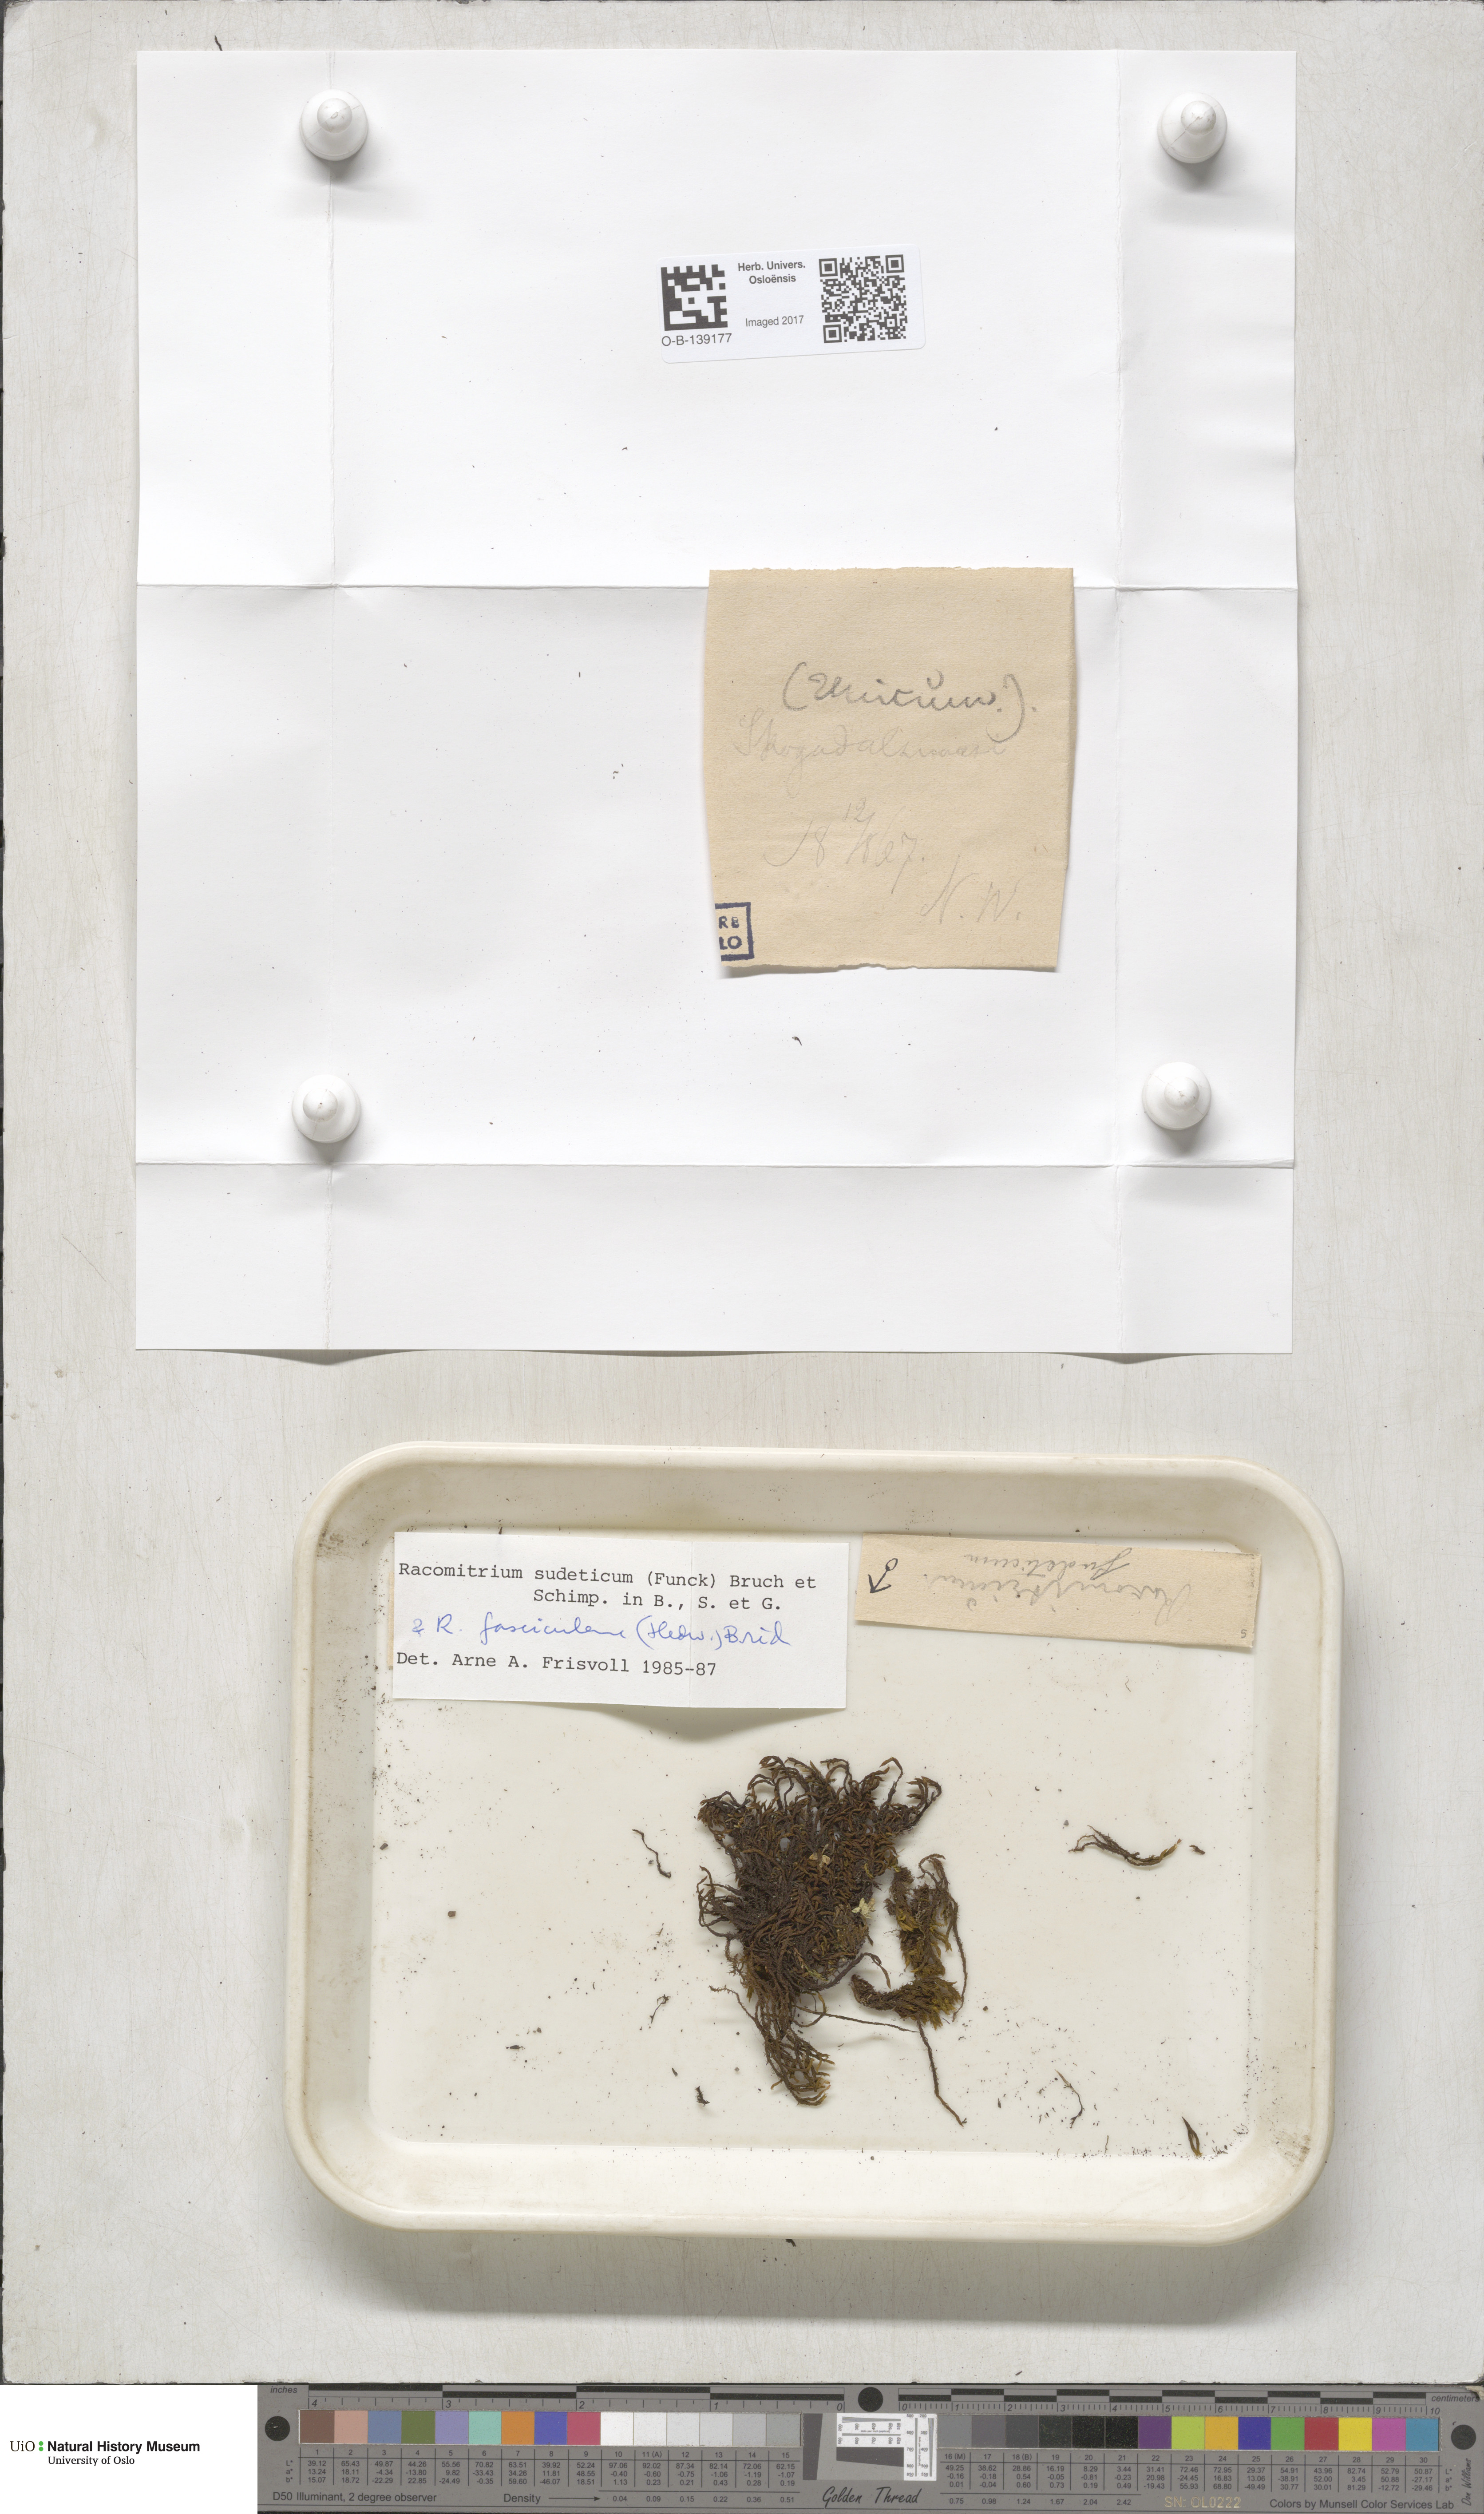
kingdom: Plantae
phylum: Bryophyta
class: Bryopsida
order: Grimmiales
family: Grimmiaceae
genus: Bucklandiella
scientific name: Bucklandiella sudetica
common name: Slender fringe-moss
